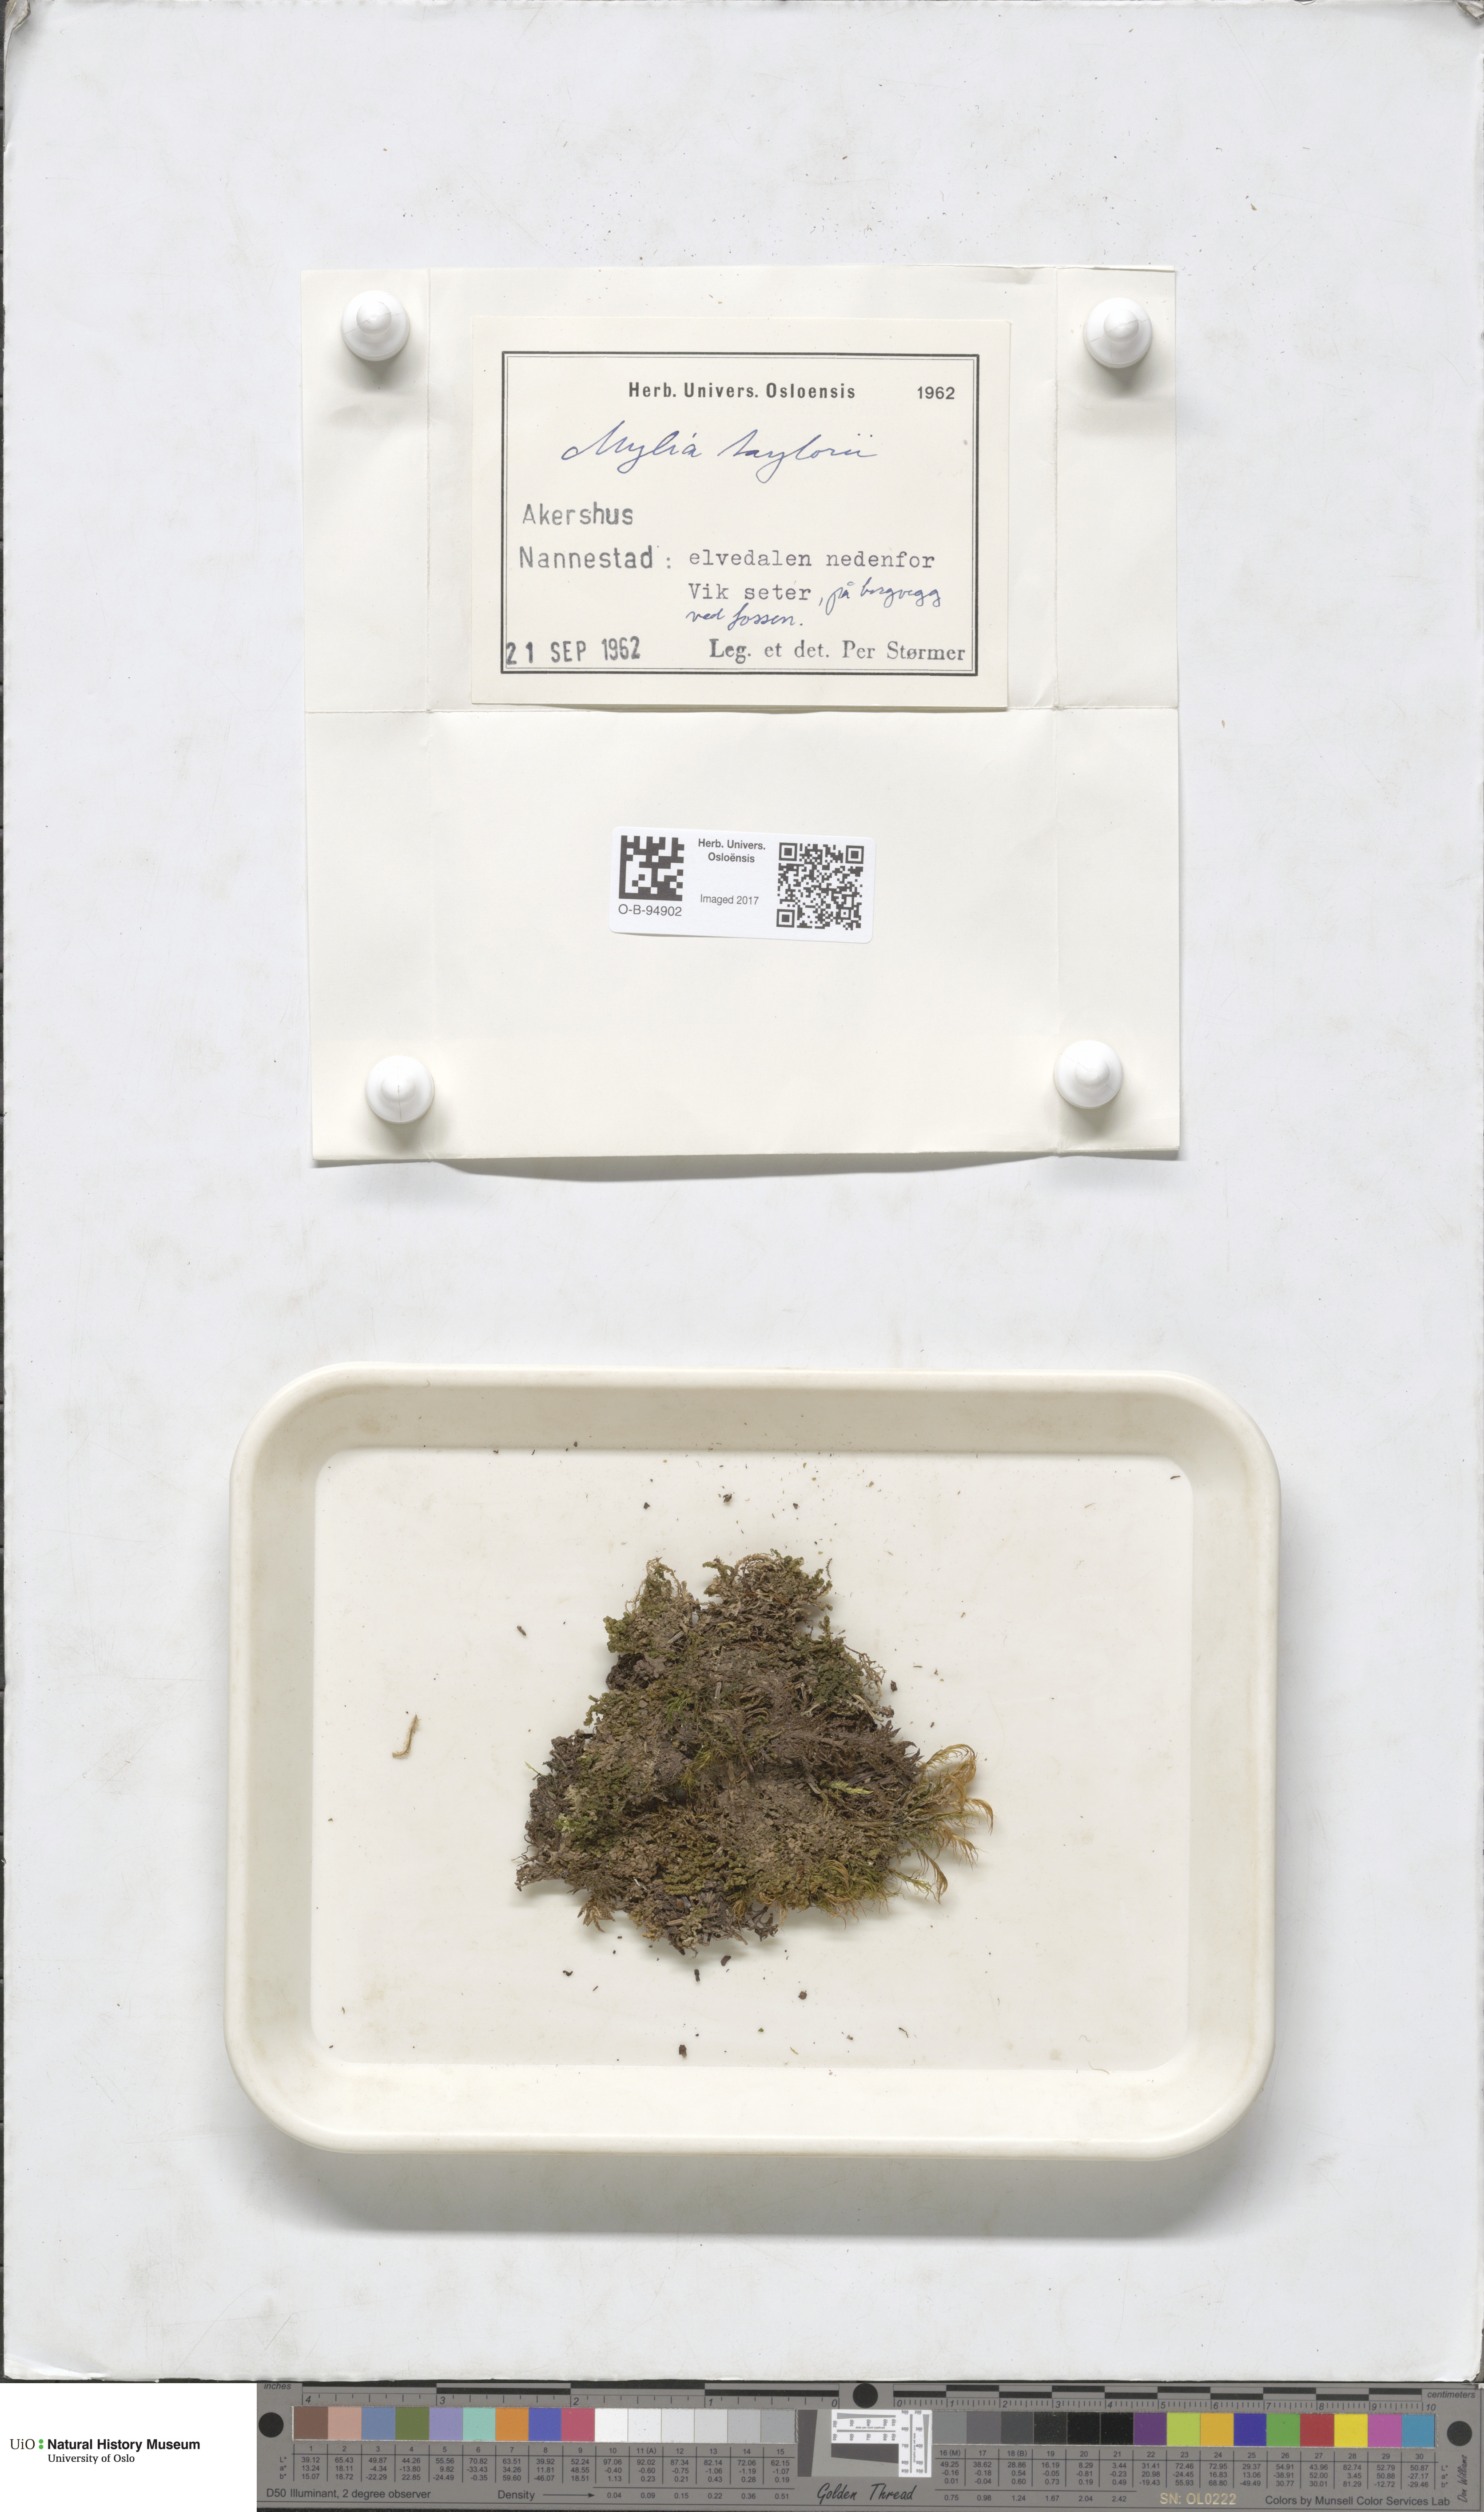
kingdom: Plantae
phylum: Marchantiophyta
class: Jungermanniopsida
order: Jungermanniales
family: Myliaceae
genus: Mylia
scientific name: Mylia taylorii
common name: Taylor s flapwort
